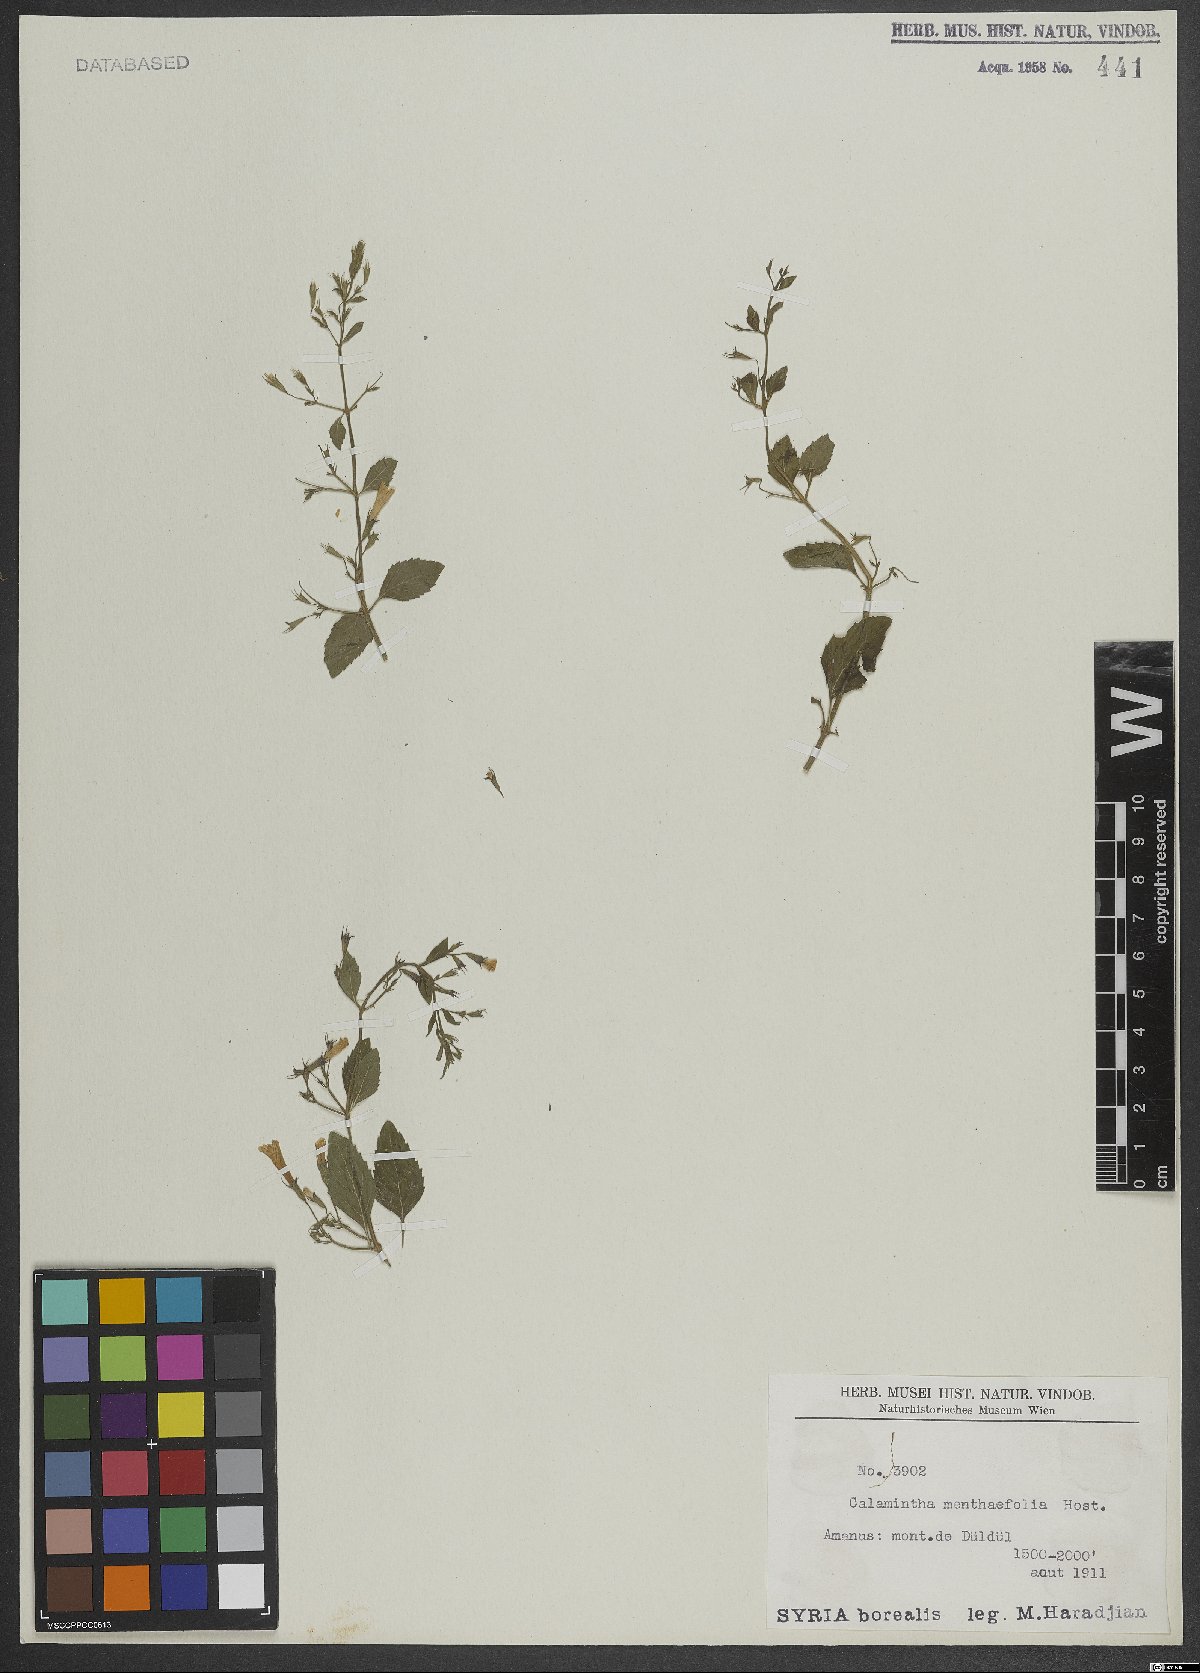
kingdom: Plantae
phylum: Tracheophyta
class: Magnoliopsida
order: Lamiales
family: Lamiaceae
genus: Calamintha
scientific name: Calamintha
